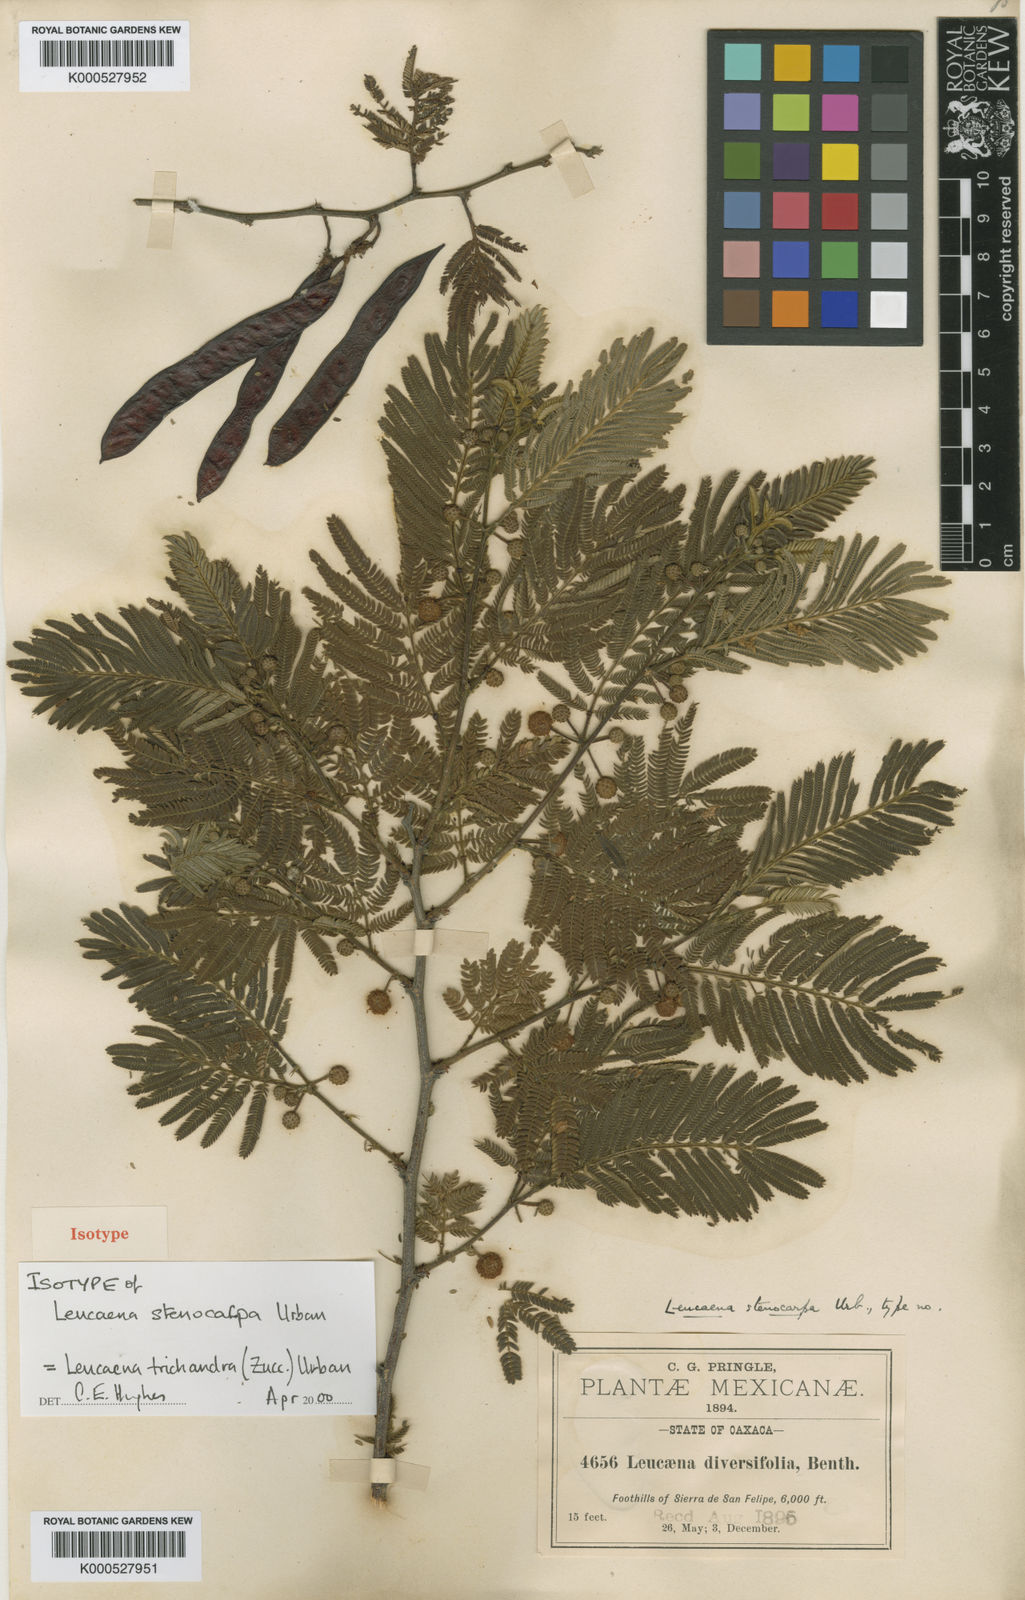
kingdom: Plantae
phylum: Tracheophyta
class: Magnoliopsida
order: Fabales
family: Fabaceae
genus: Leucaena
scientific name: Leucaena trichandra
